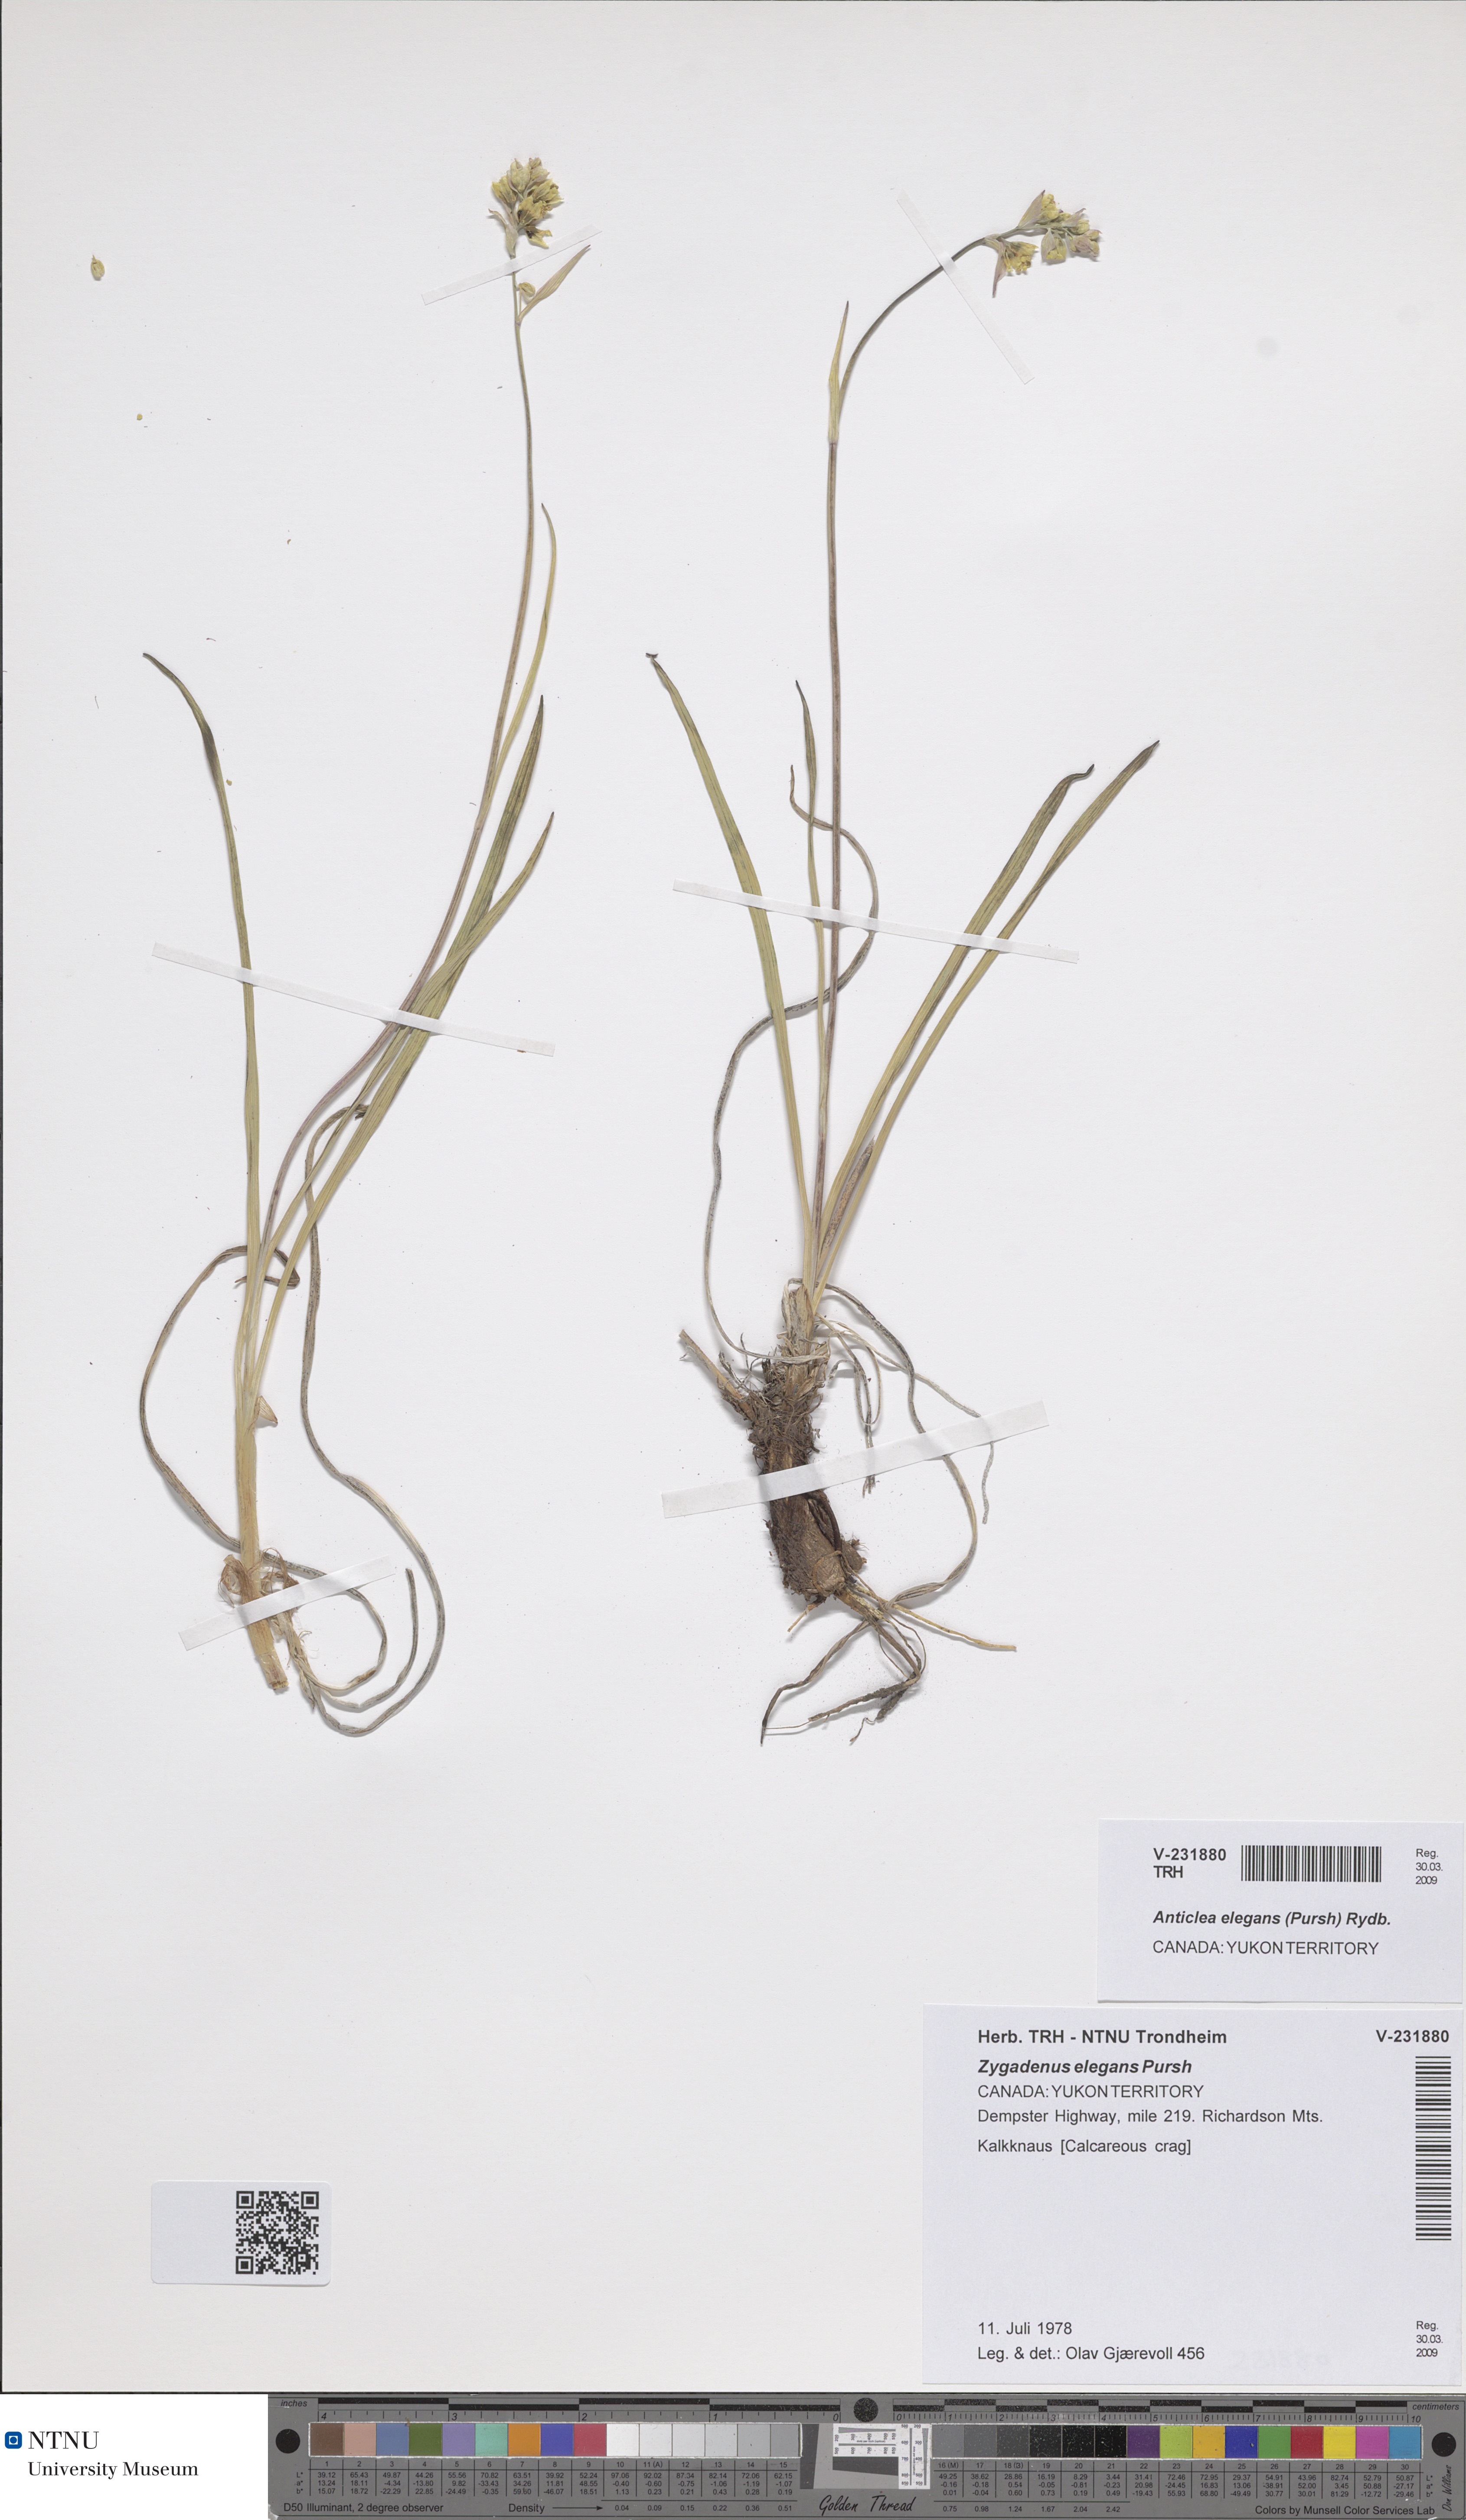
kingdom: Plantae
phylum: Tracheophyta
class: Liliopsida
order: Liliales
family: Melanthiaceae
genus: Anticlea
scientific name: Anticlea elegans
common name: Mountain death camas
